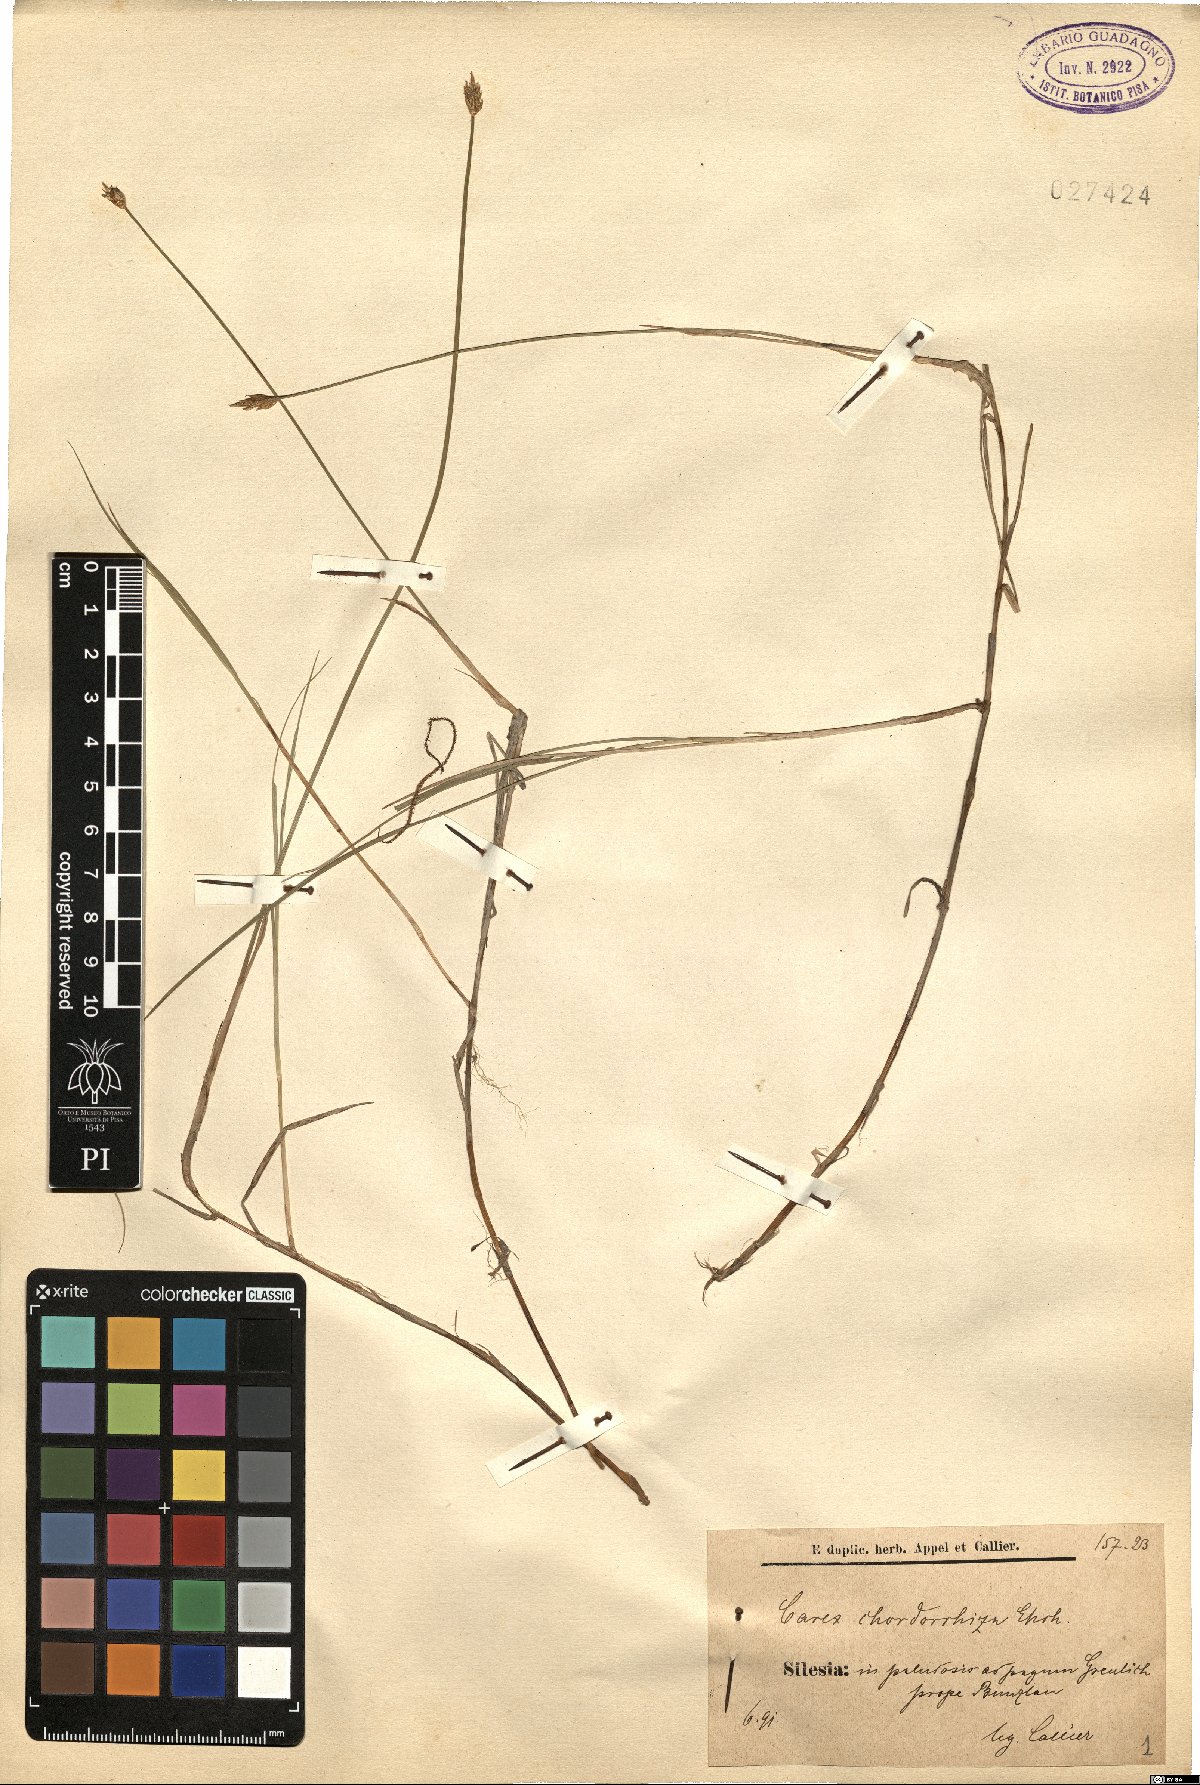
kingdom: Plantae
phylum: Tracheophyta
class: Liliopsida
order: Poales
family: Cyperaceae
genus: Carex
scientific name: Carex chordorrhiza
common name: String sedge
